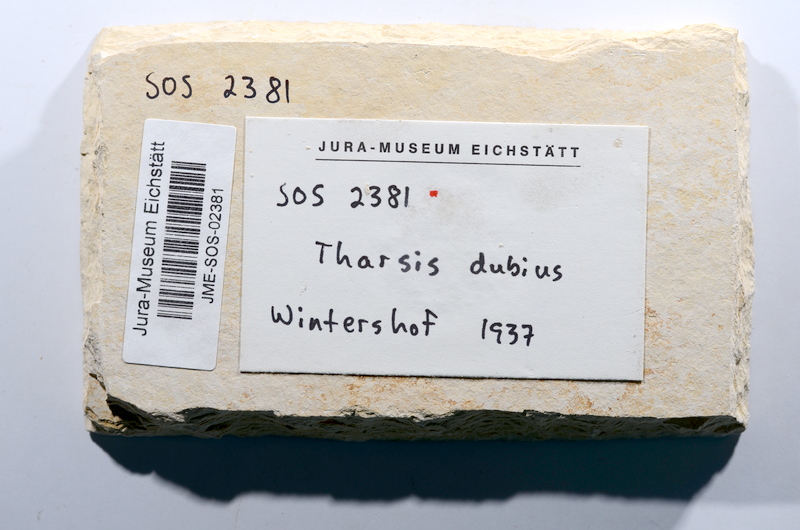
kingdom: Animalia
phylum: Chordata
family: Ascalaboidae
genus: Tharsis
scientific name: Tharsis dubius
